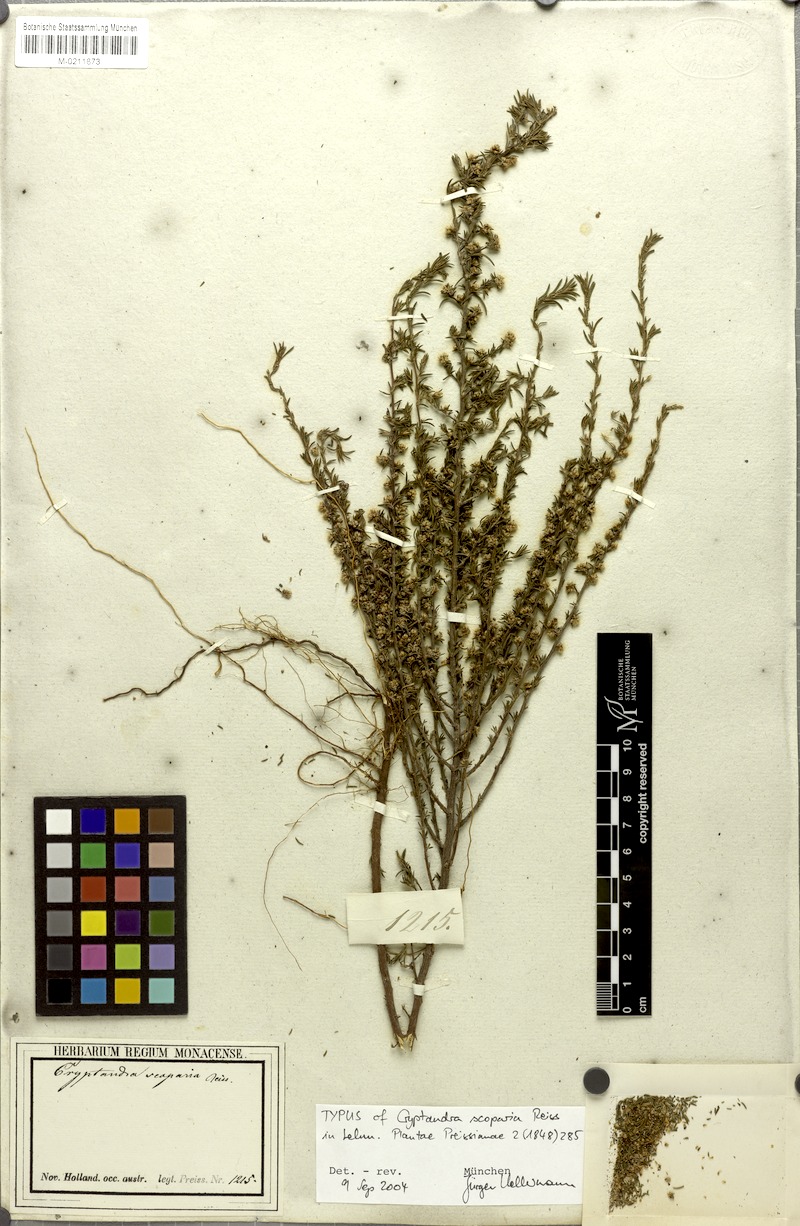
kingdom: Plantae
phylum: Tracheophyta
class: Magnoliopsida
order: Rosales
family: Rhamnaceae
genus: Cryptandra
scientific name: Cryptandra scoparia
